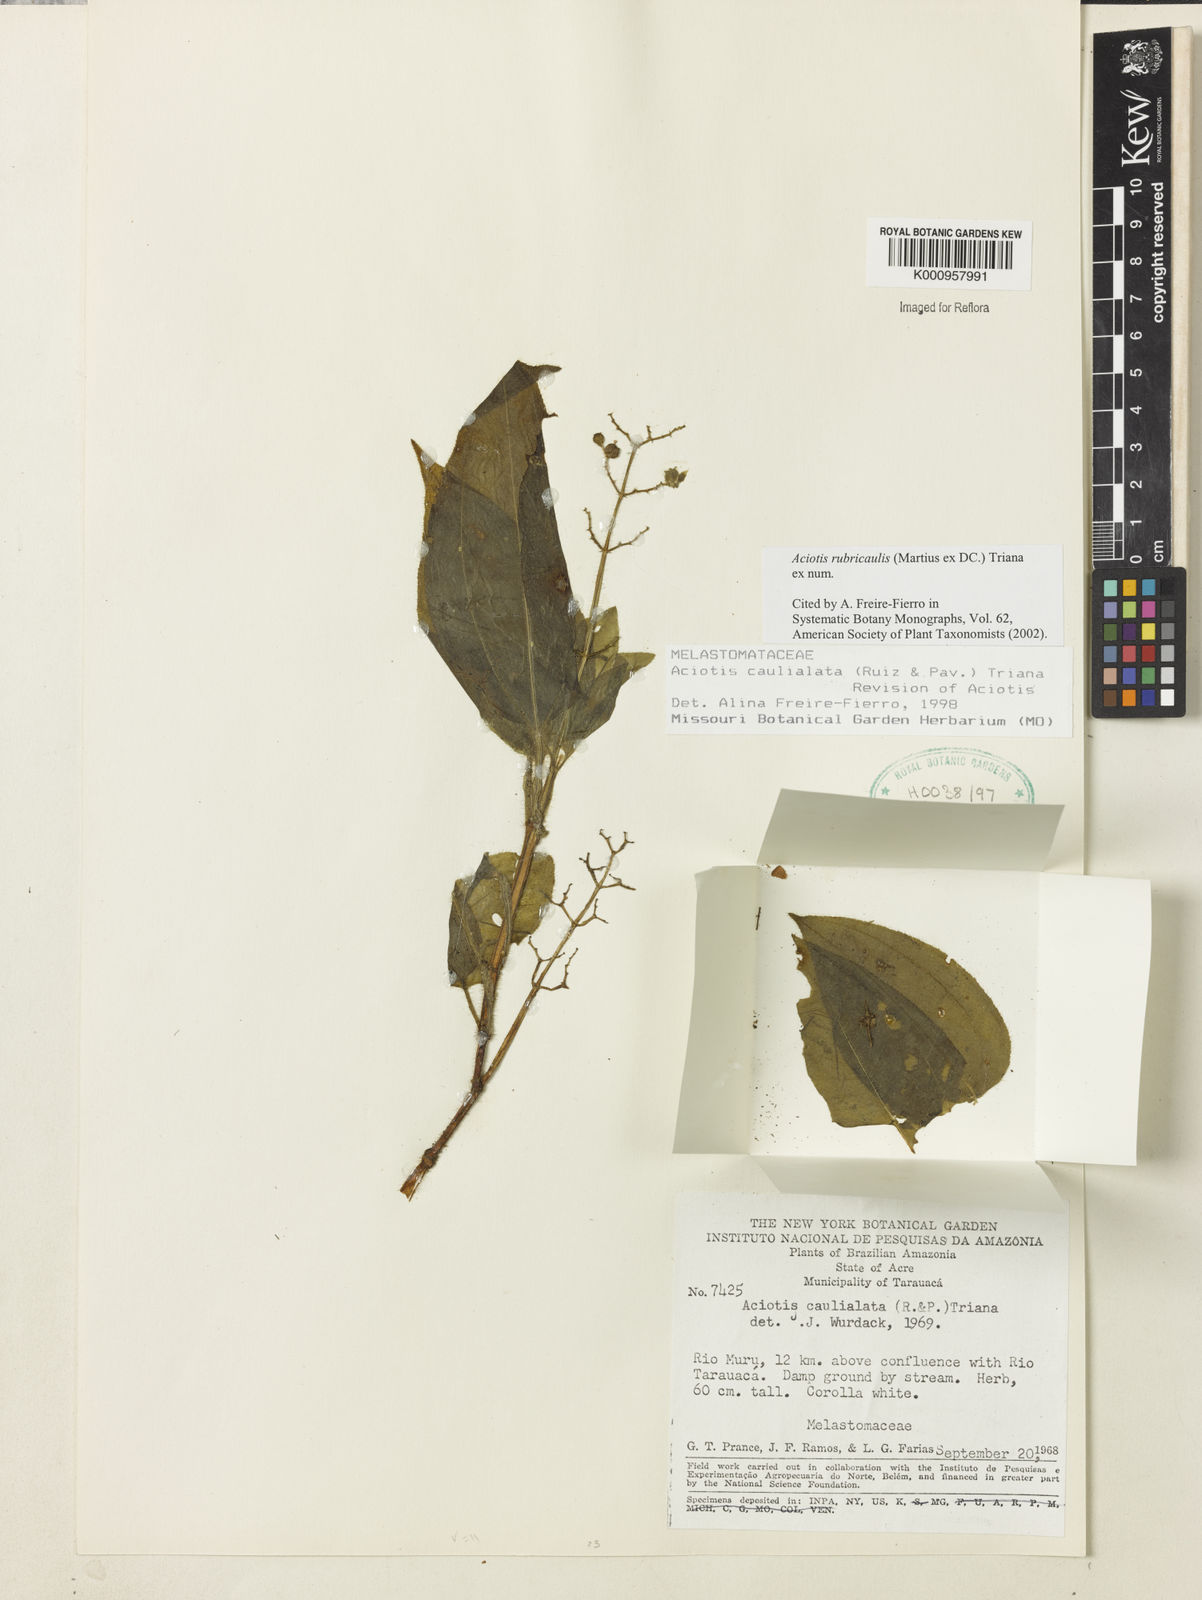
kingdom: Plantae
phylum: Tracheophyta
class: Magnoliopsida
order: Myrtales
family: Melastomataceae
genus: Aciotis
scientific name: Aciotis rubricaulis
